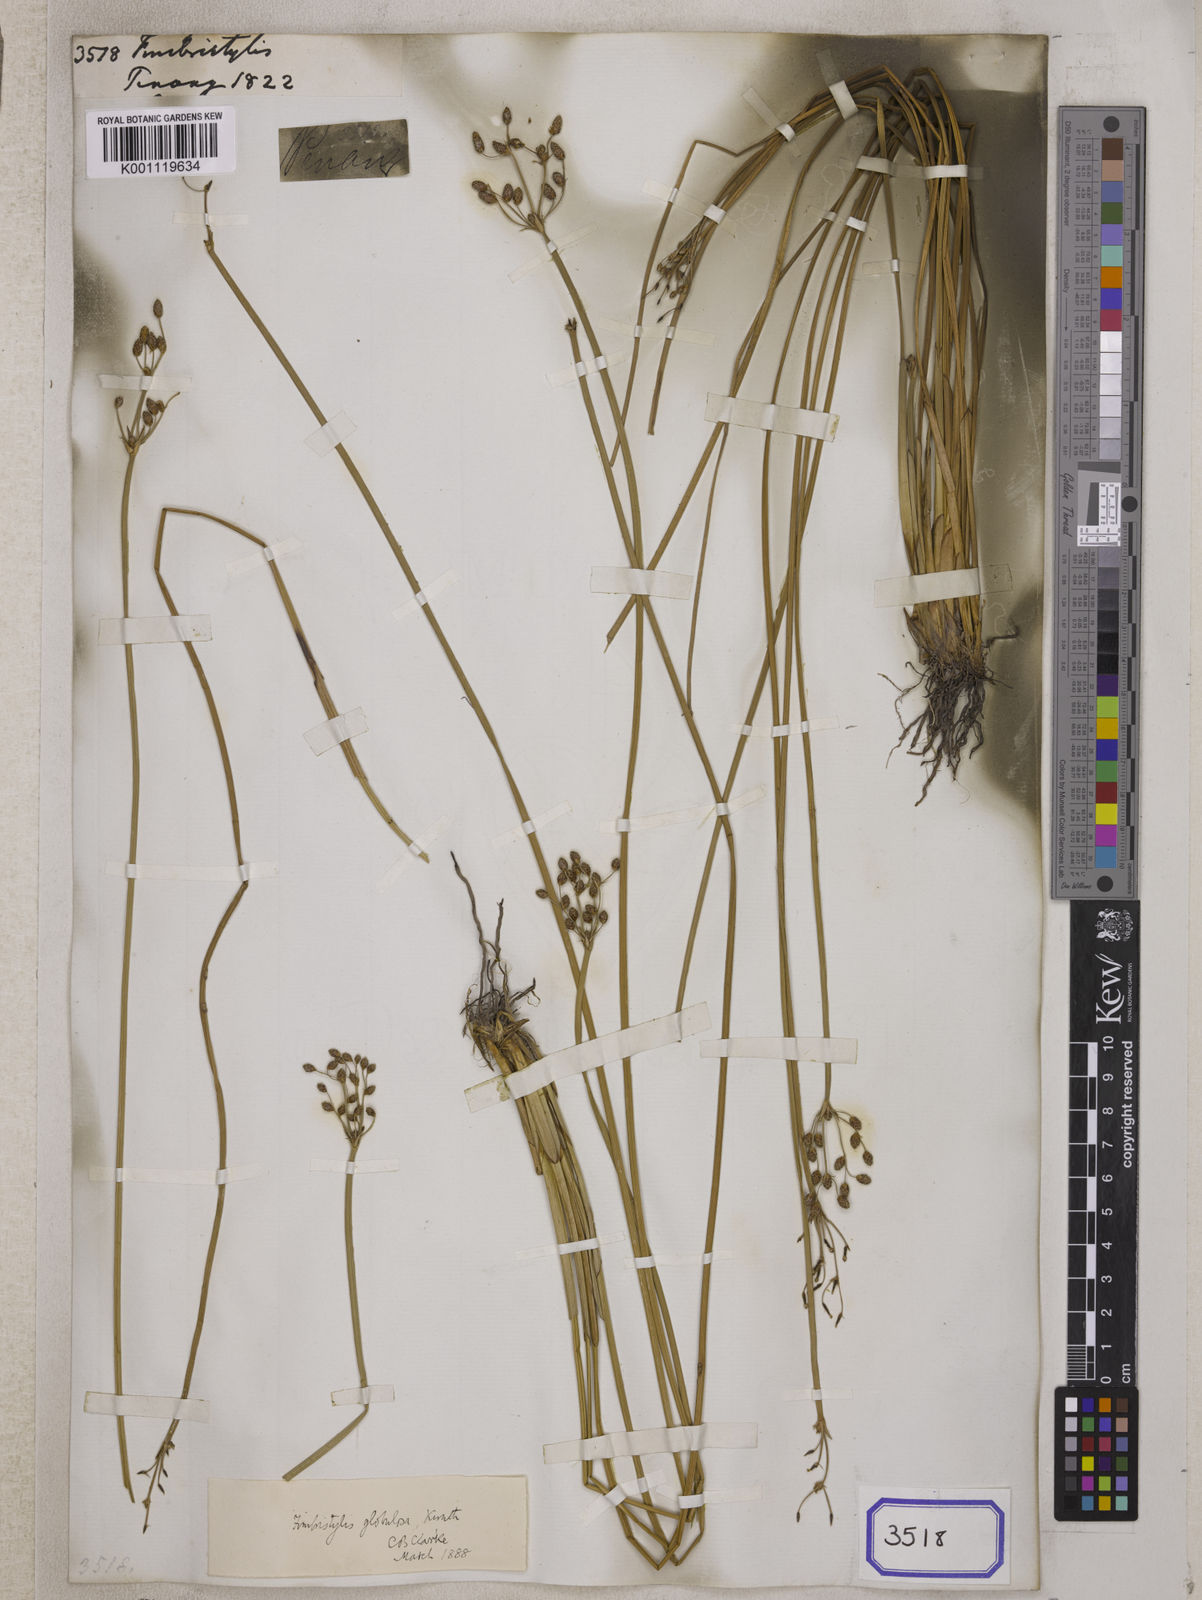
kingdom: Plantae
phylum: Tracheophyta
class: Liliopsida
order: Poales
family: Cyperaceae
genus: Fimbristylis
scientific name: Fimbristylis
